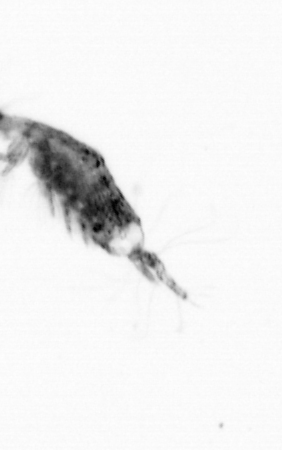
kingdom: Animalia
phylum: Arthropoda
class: Copepoda
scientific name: Copepoda
